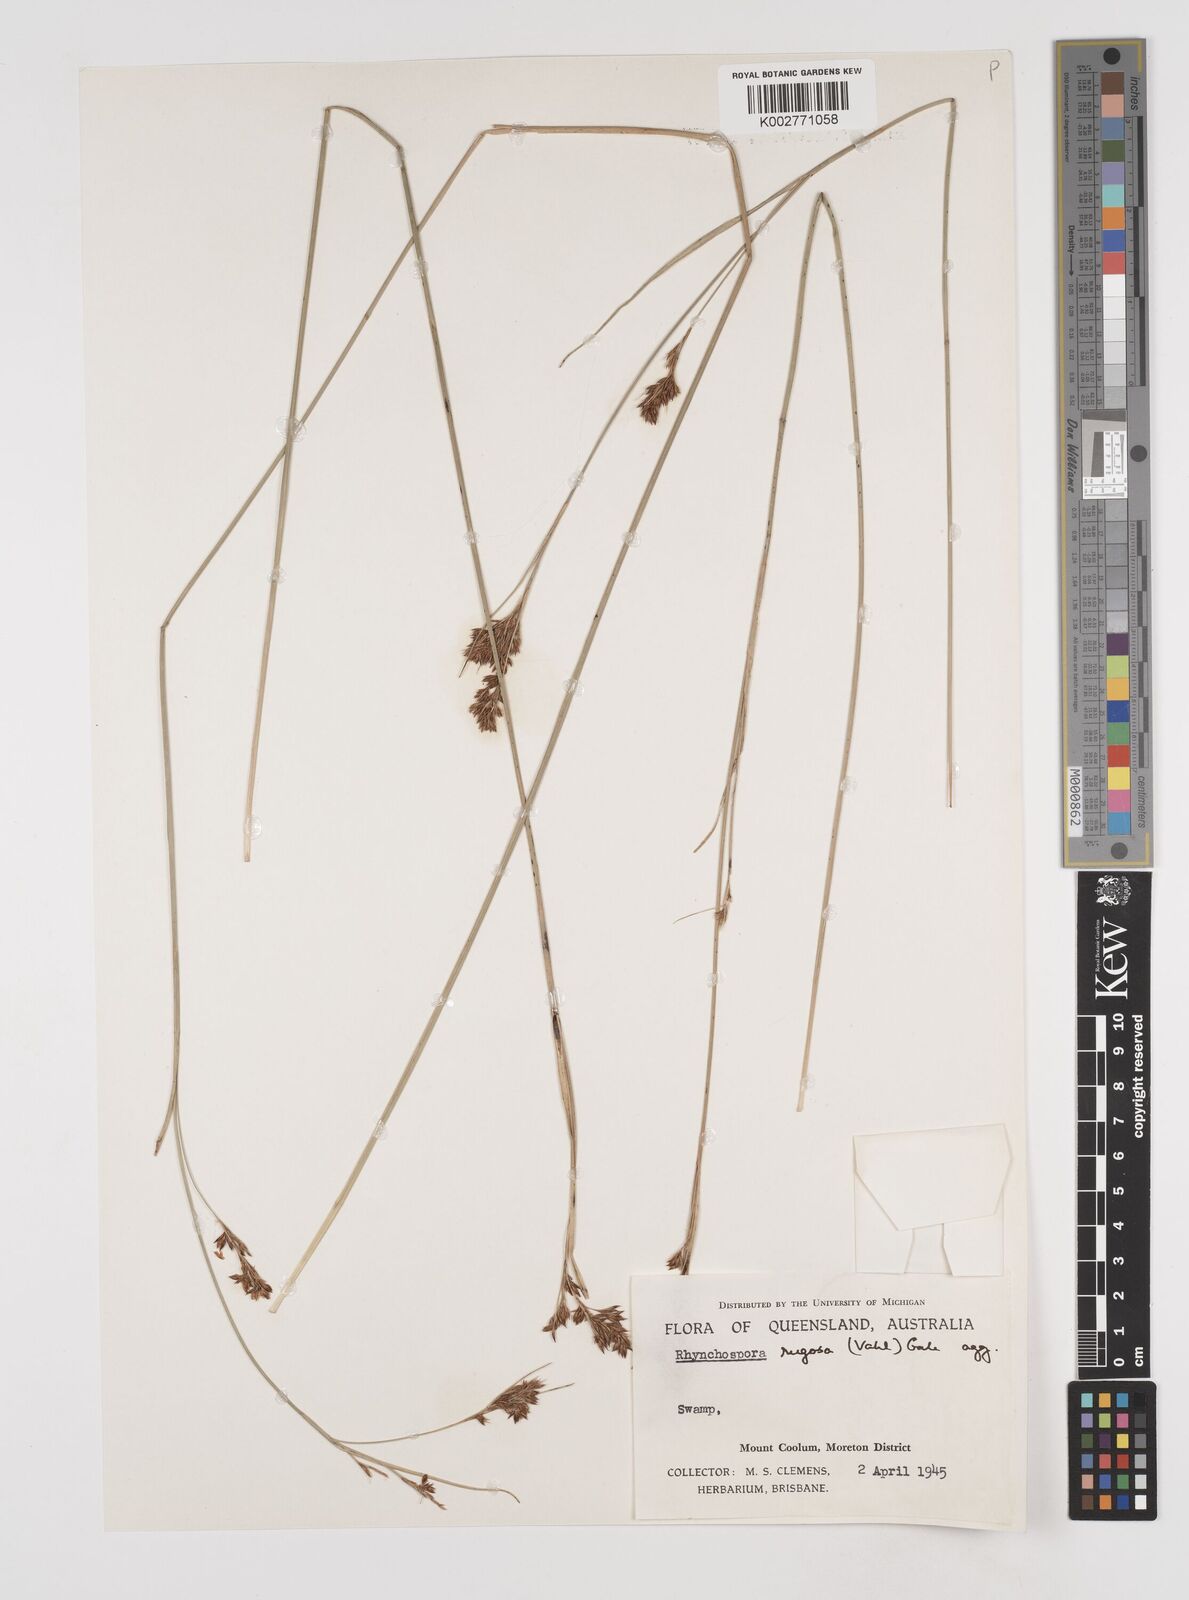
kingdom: Plantae
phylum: Tracheophyta
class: Liliopsida
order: Poales
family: Cyperaceae
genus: Rhynchospora
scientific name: Rhynchospora rugosa
